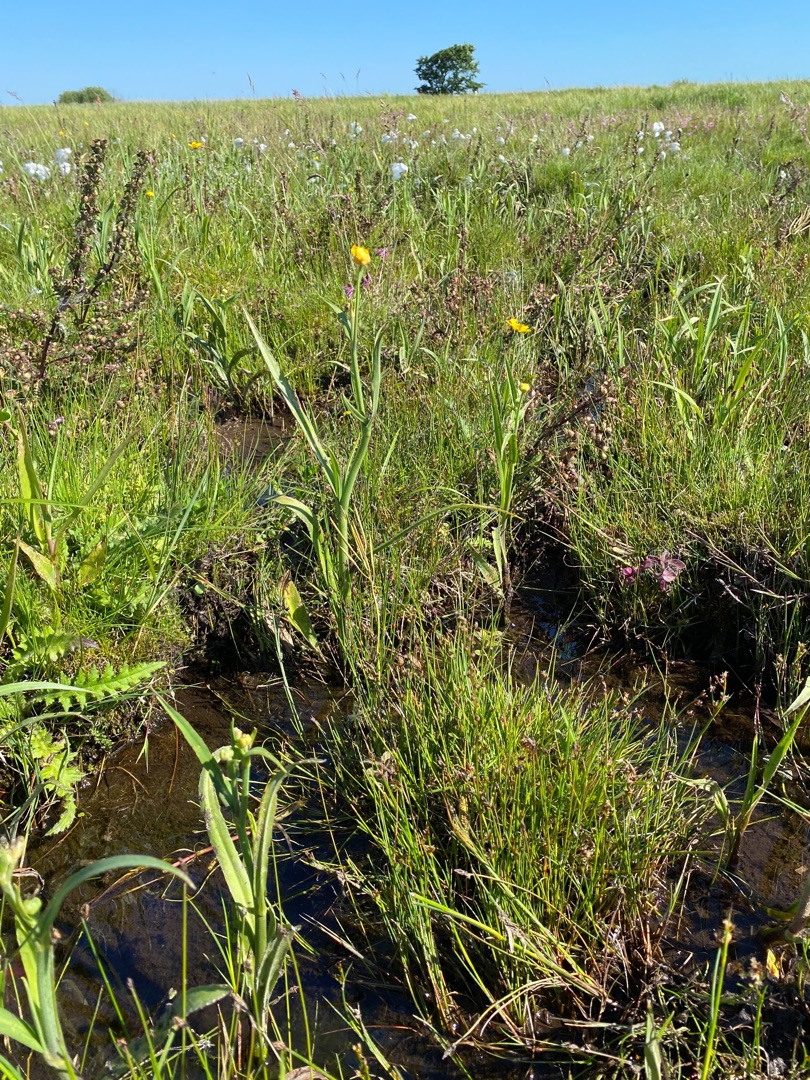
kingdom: Plantae
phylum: Tracheophyta
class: Magnoliopsida
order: Ranunculales
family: Ranunculaceae
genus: Ranunculus
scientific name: Ranunculus lingua
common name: Langbladet ranunkel
